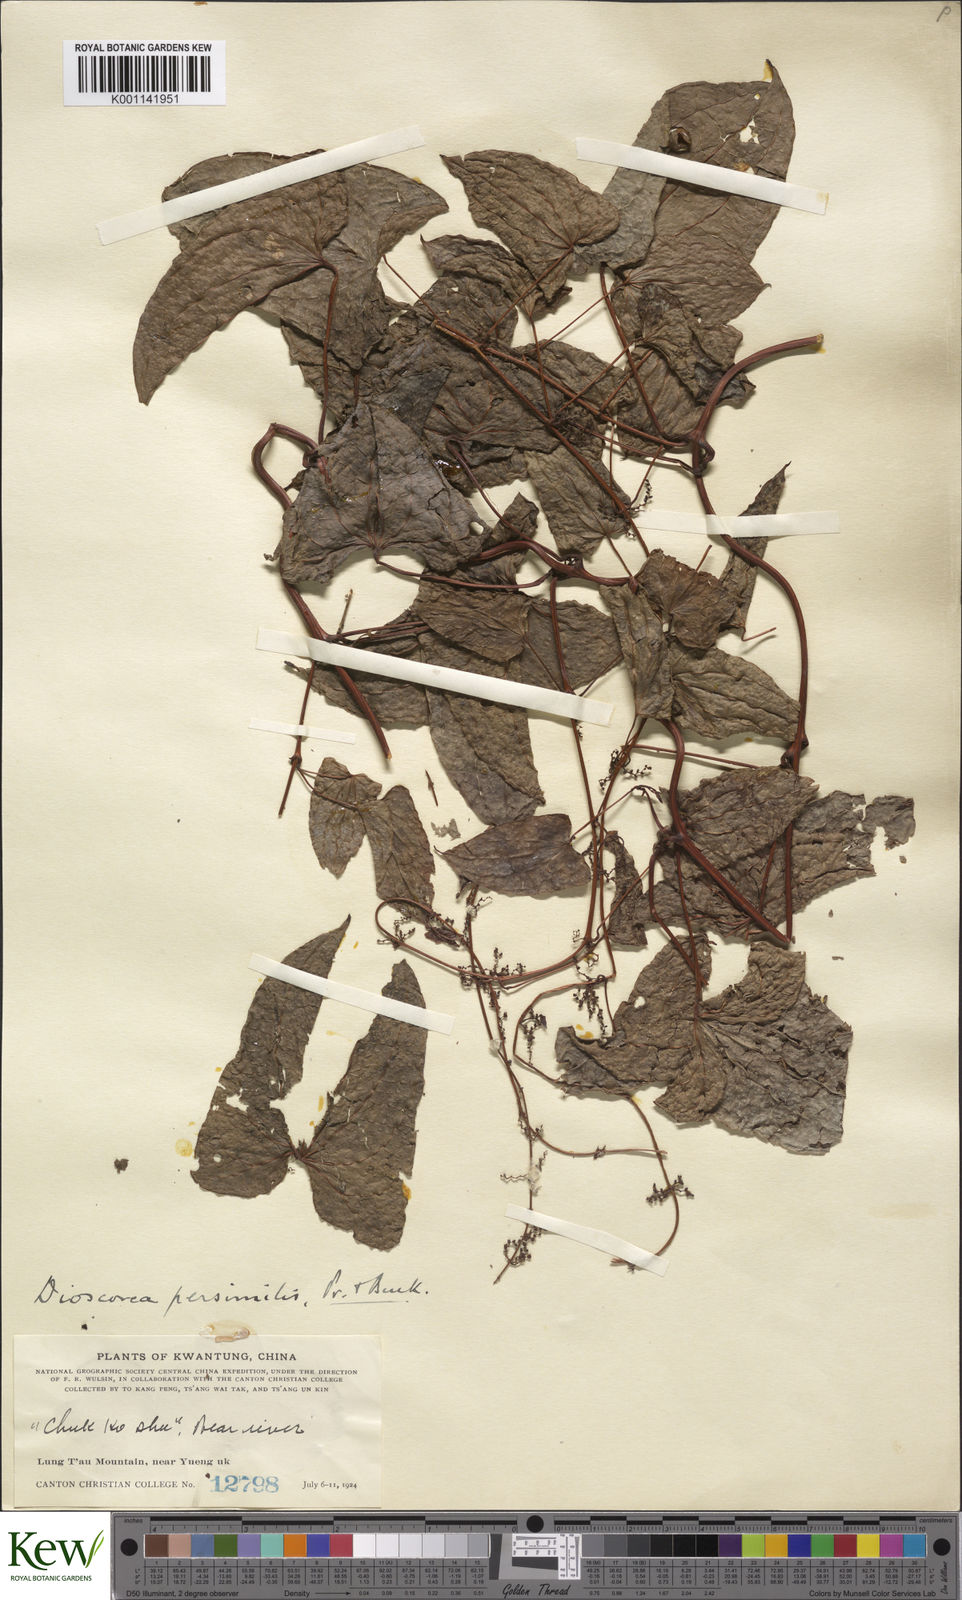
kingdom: Plantae
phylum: Tracheophyta
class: Liliopsida
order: Dioscoreales
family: Dioscoreaceae
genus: Dioscorea
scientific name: Dioscorea hamiltonii
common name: Mountain yam
